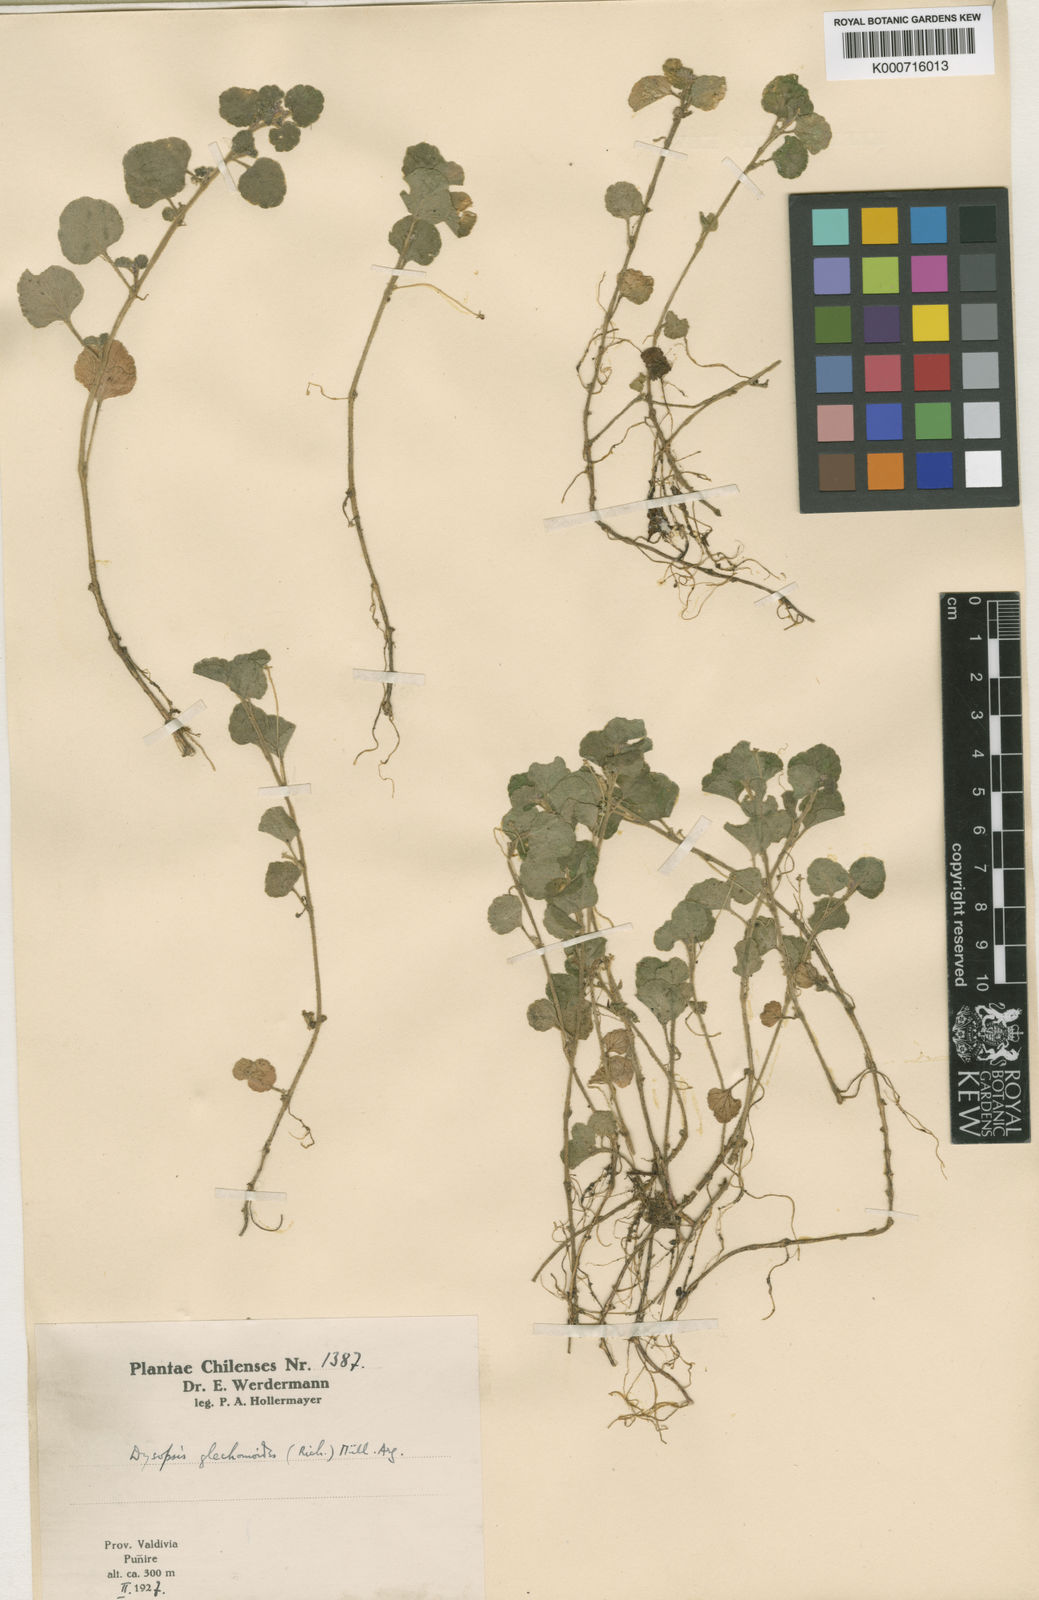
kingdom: Plantae
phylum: Tracheophyta
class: Magnoliopsida
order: Malpighiales
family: Euphorbiaceae
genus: Dysopsis
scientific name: Dysopsis
